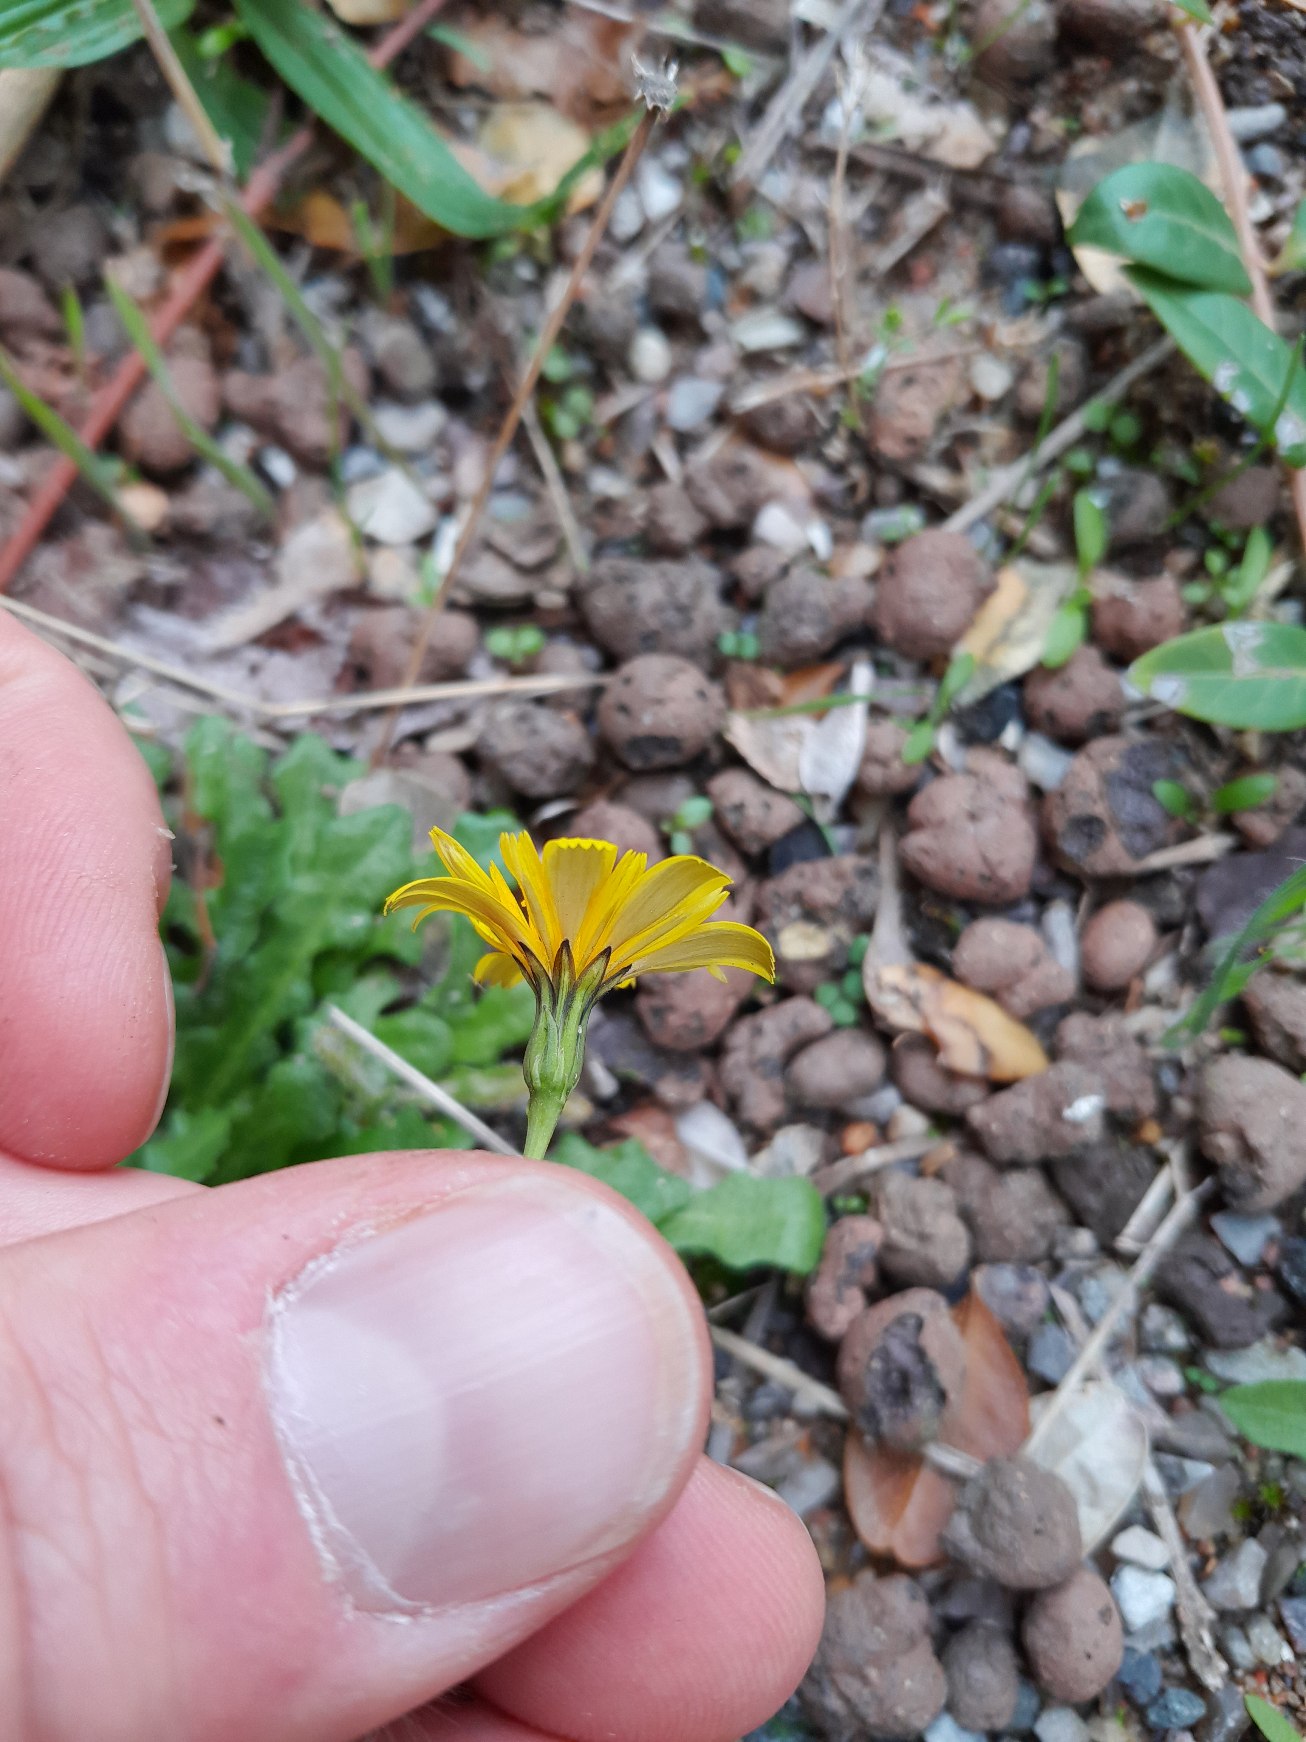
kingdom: Plantae
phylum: Tracheophyta
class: Magnoliopsida
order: Asterales
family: Asteraceae
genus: Thrincia
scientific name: Thrincia saxatilis
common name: Hundesalat
